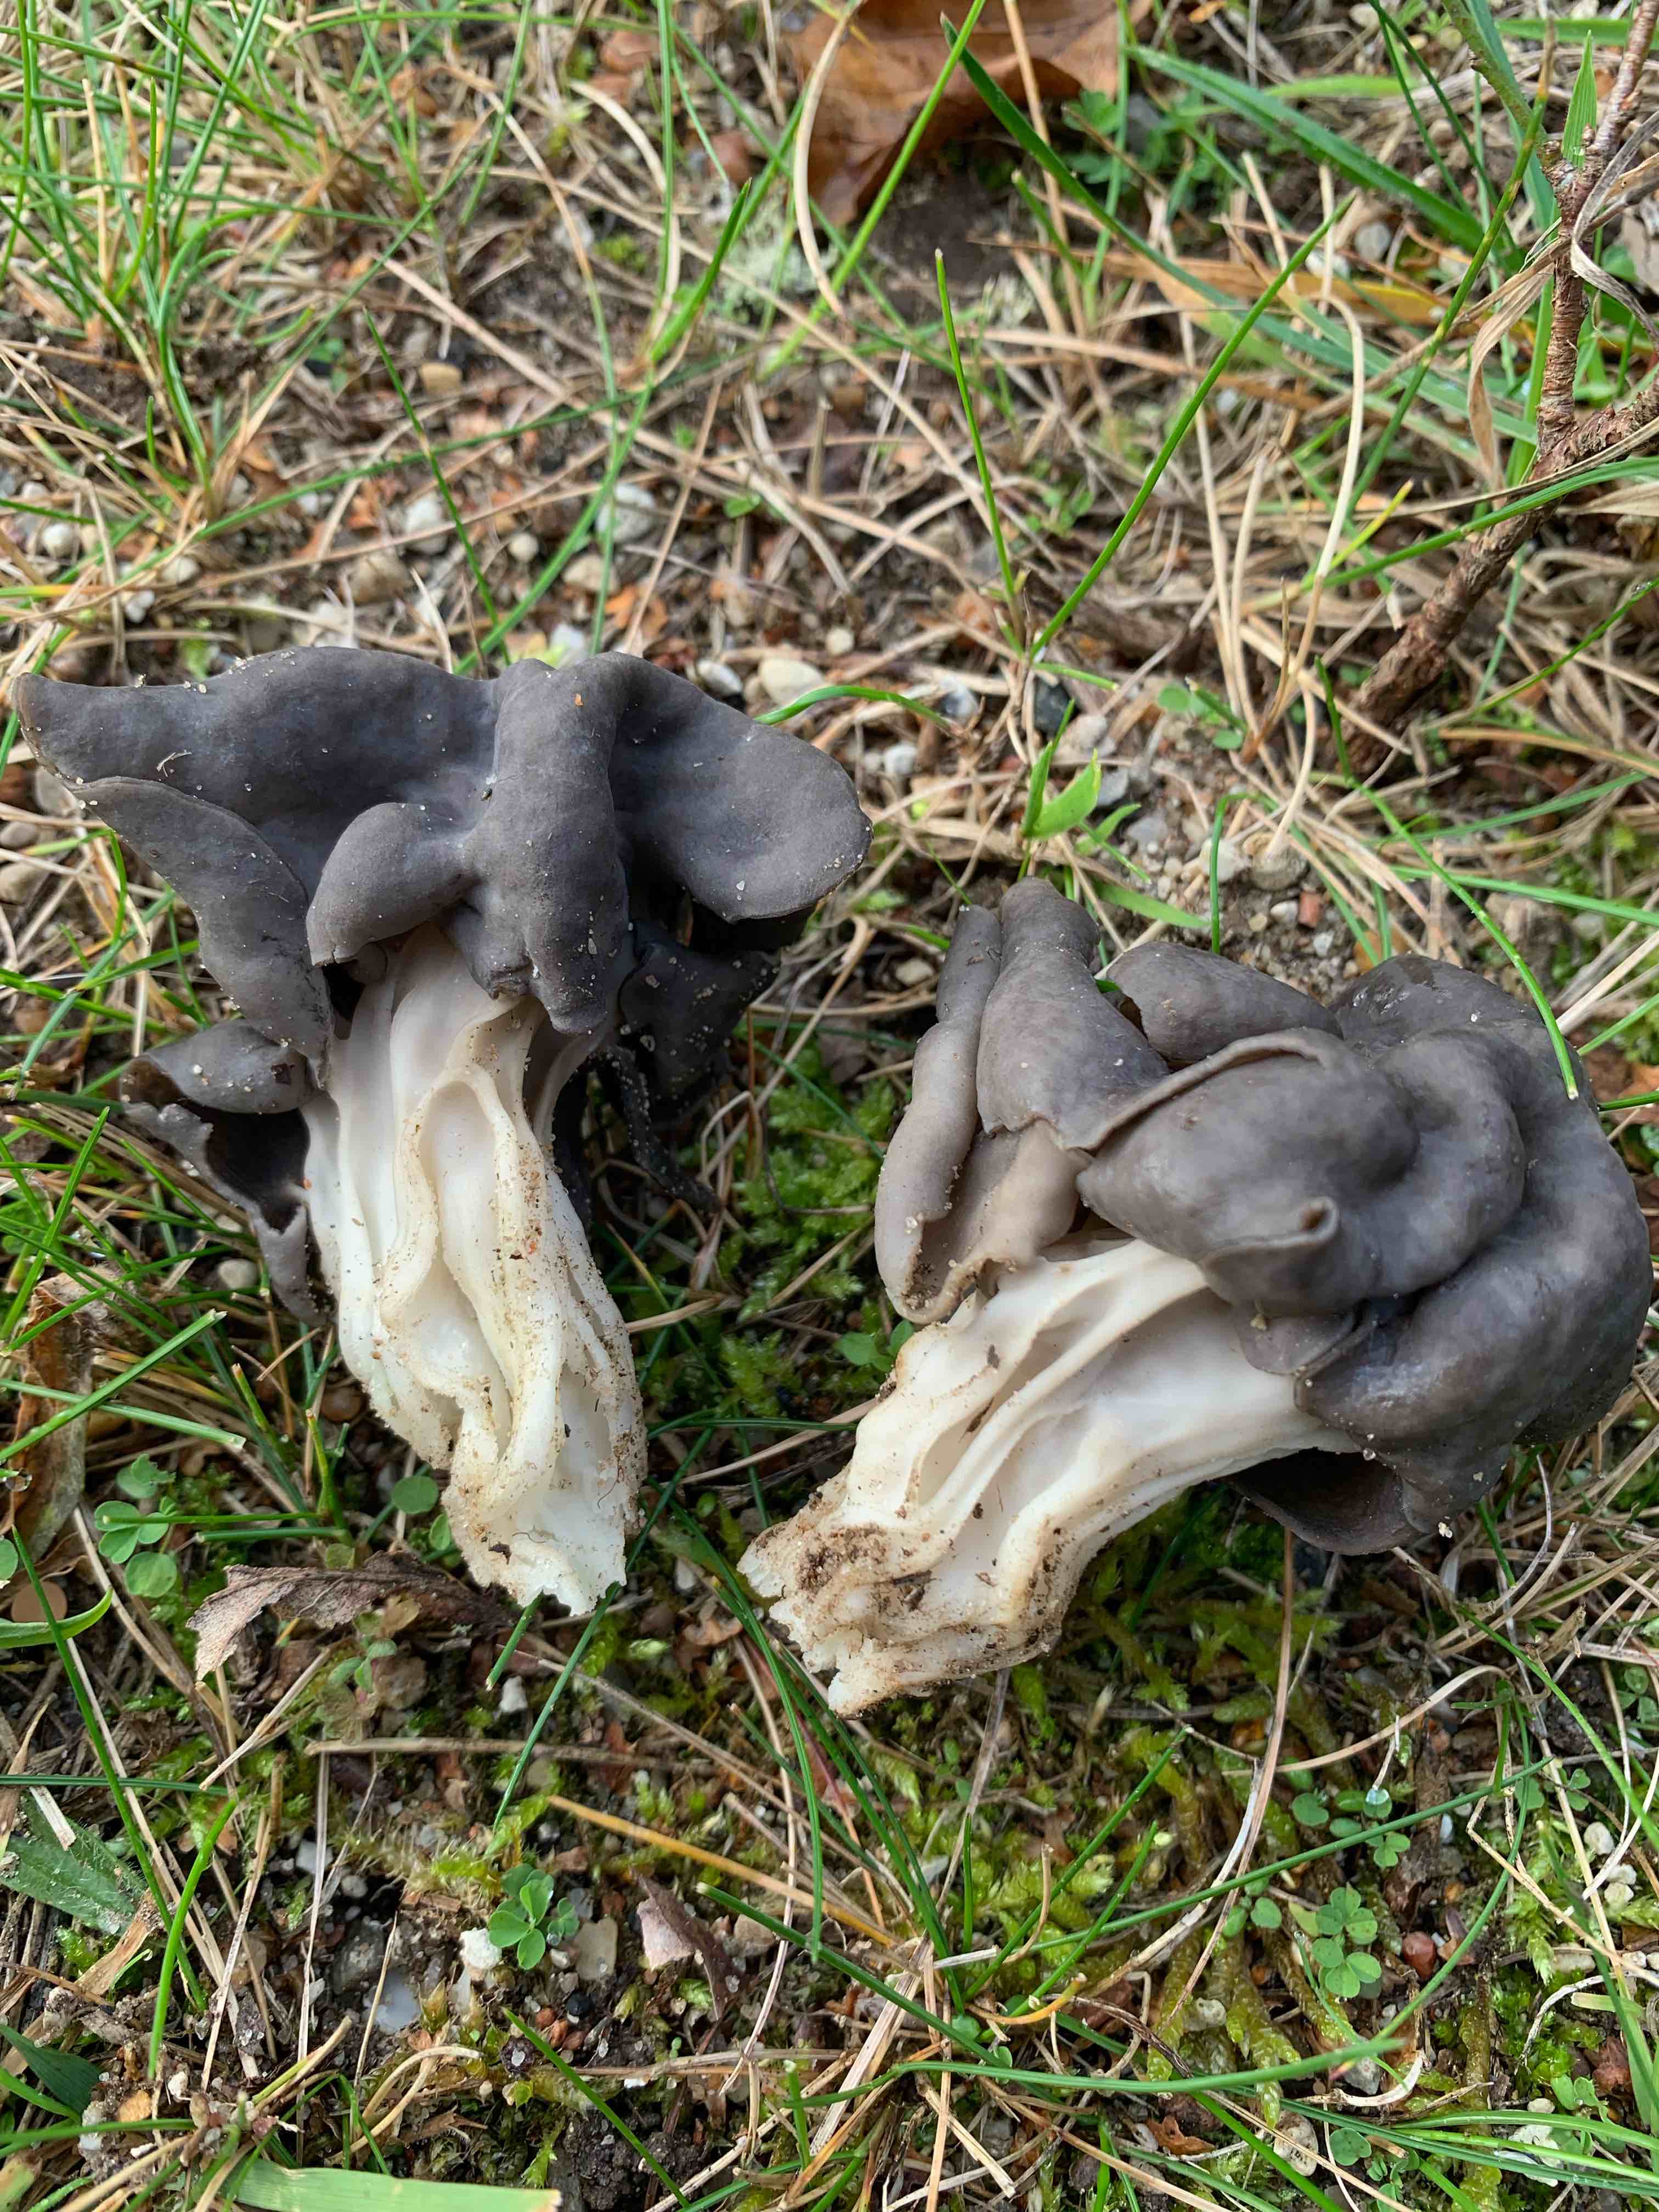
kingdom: Fungi
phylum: Ascomycota
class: Pezizomycetes
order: Pezizales
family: Helvellaceae
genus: Helvella
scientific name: Helvella lacunosa
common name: grubet foldhat
